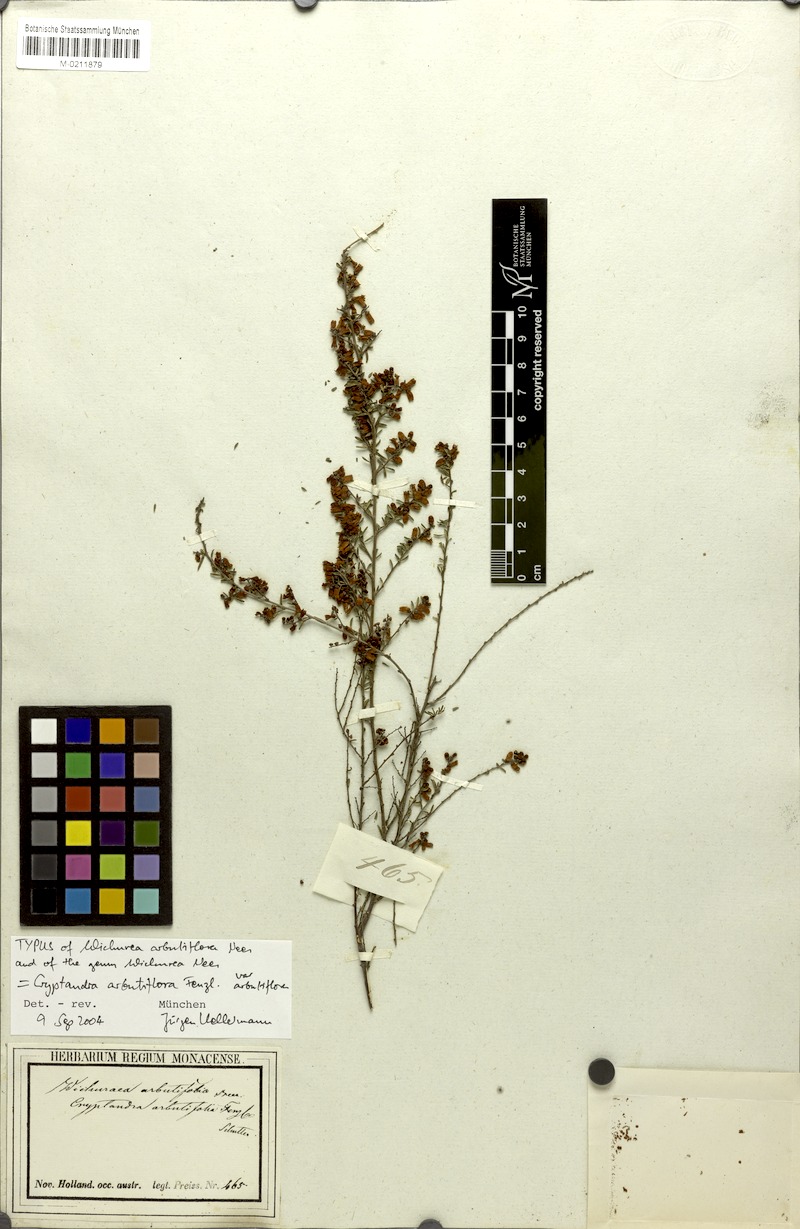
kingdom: Plantae
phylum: Tracheophyta
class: Magnoliopsida
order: Rosales
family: Rhamnaceae
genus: Cryptandra
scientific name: Cryptandra arbutiflora
